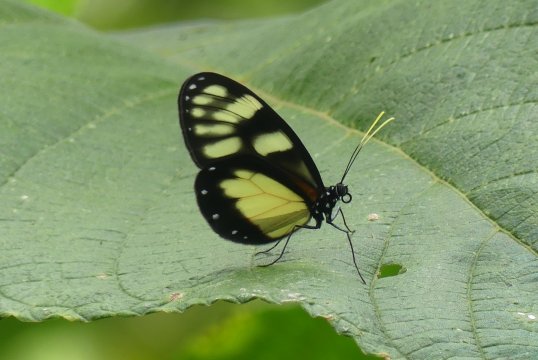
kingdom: Animalia
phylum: Arthropoda
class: Insecta
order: Lepidoptera
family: Nymphalidae
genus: Godyris
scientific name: Godyris zavaleta
